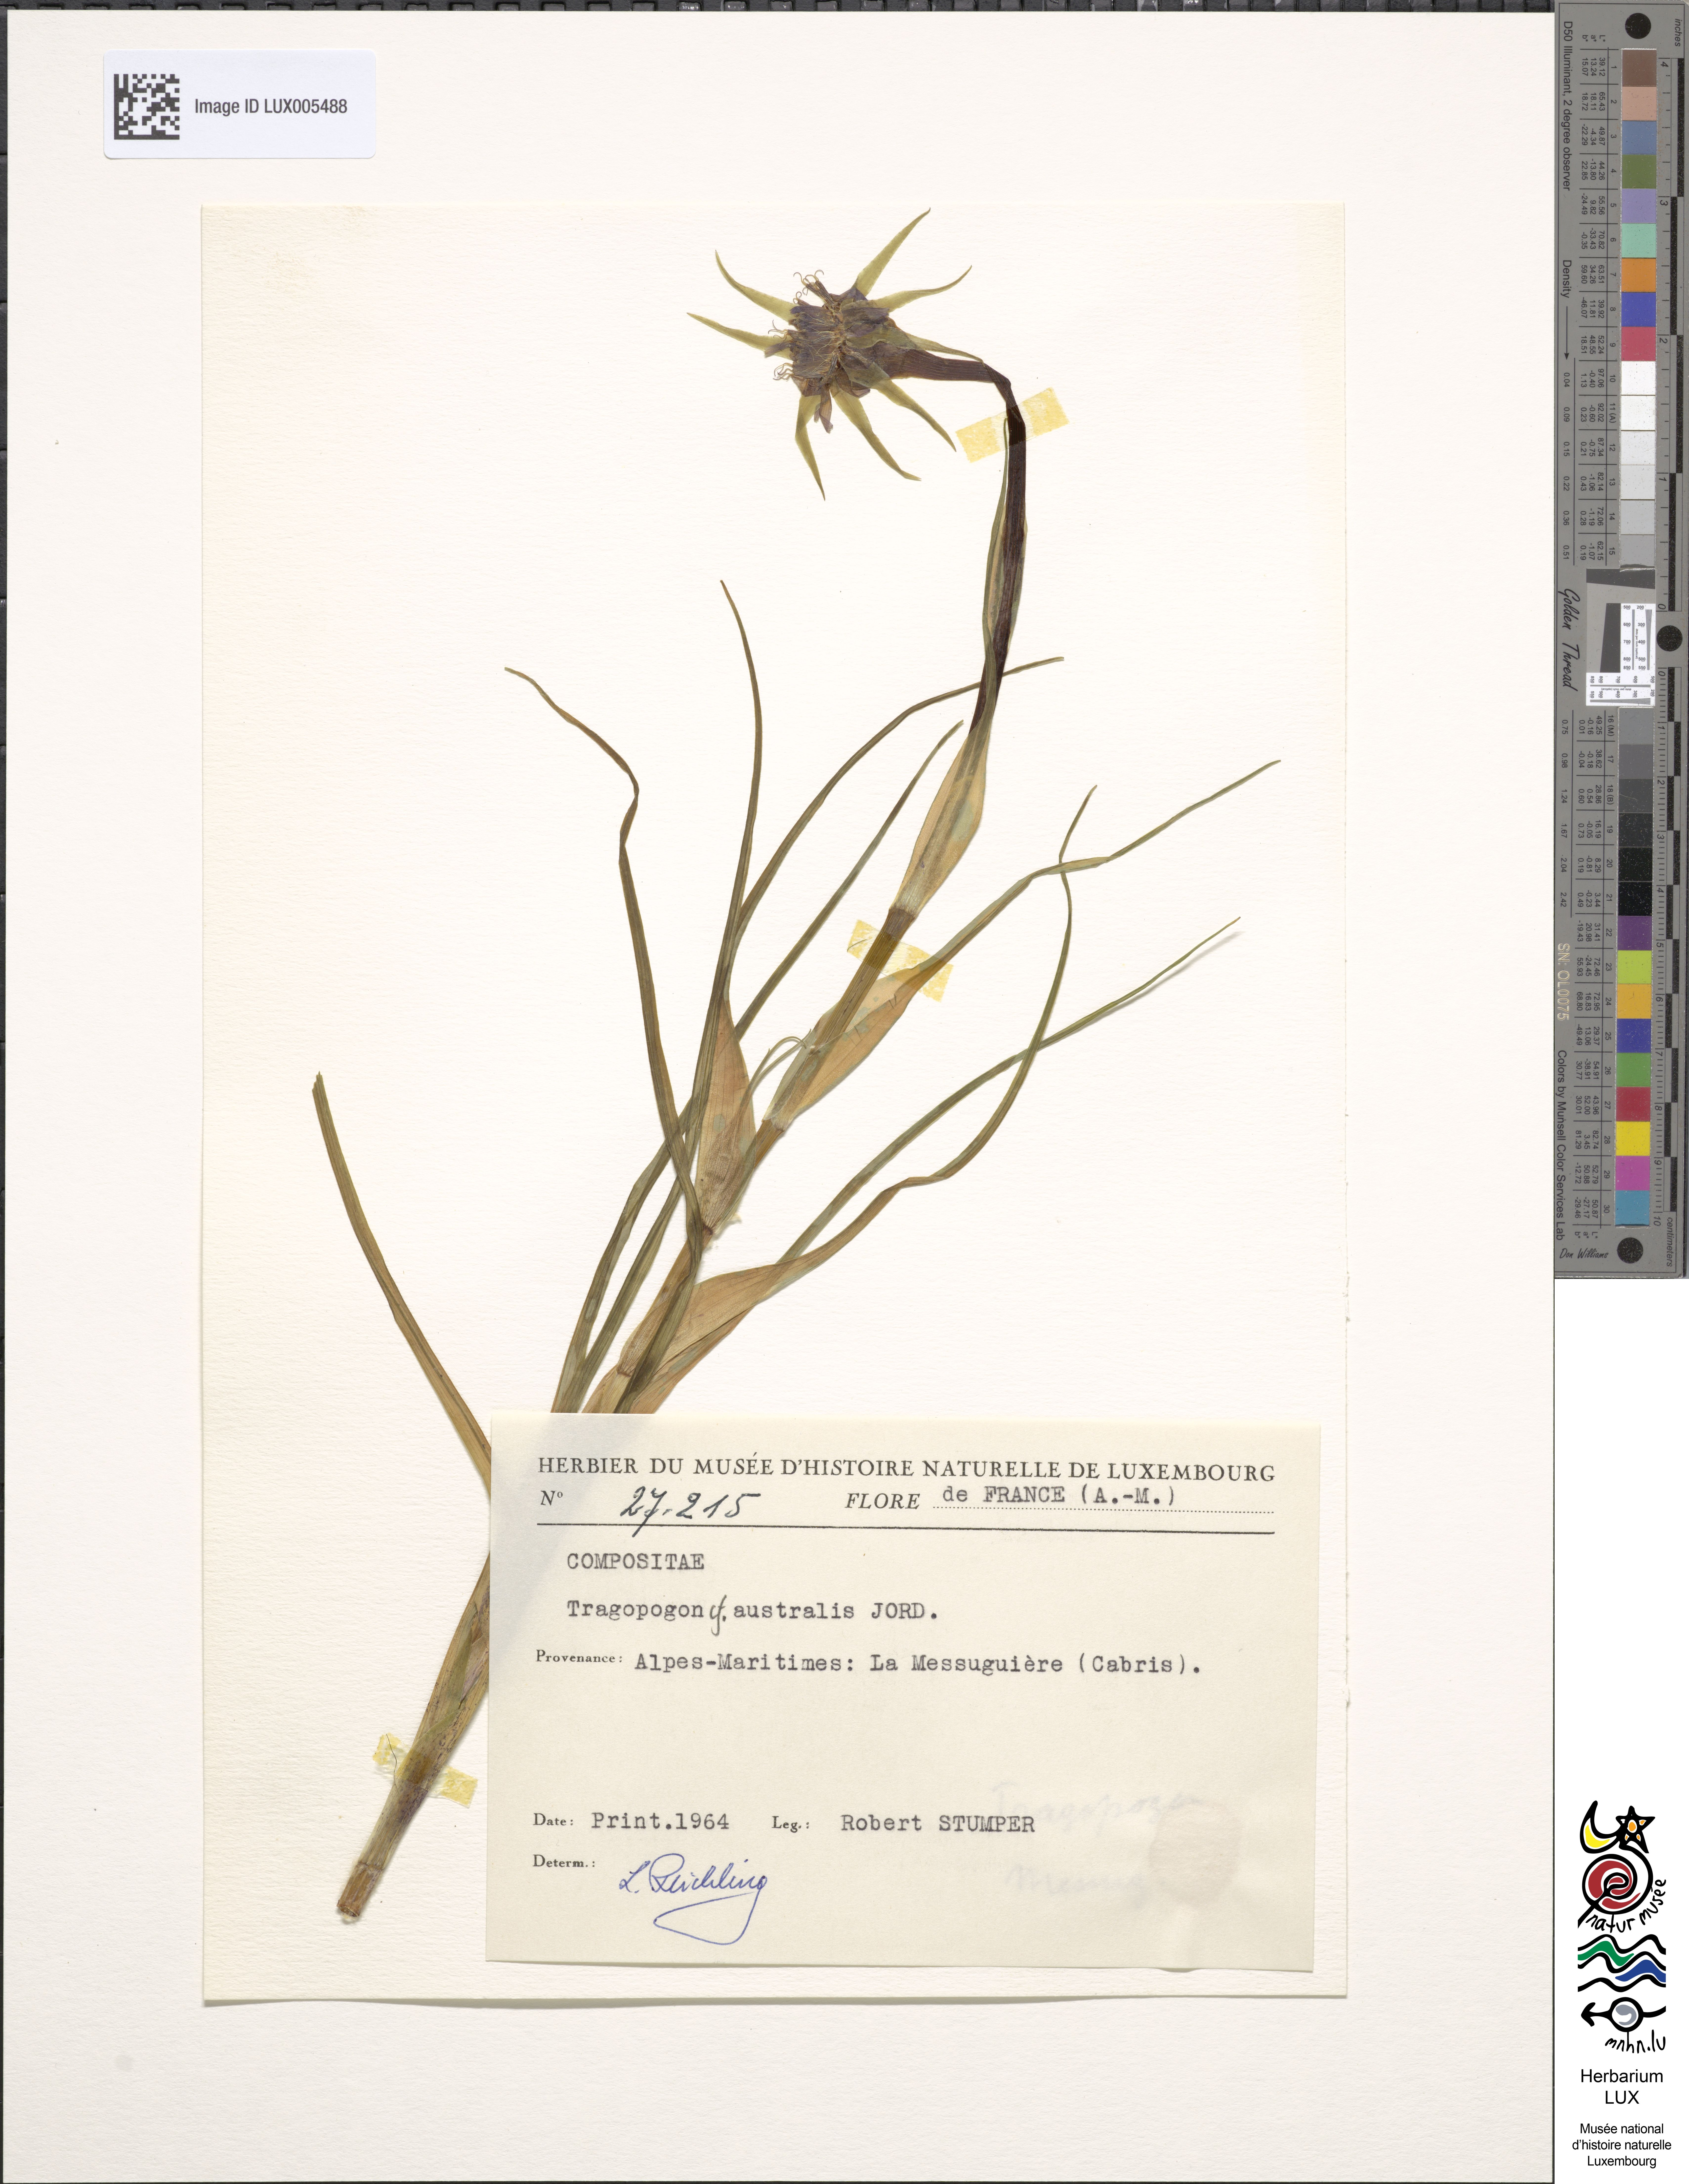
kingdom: Plantae
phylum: Tracheophyta
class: Magnoliopsida
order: Asterales
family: Asteraceae
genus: Tragopogon
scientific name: Tragopogon porrifolius
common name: Salsify
